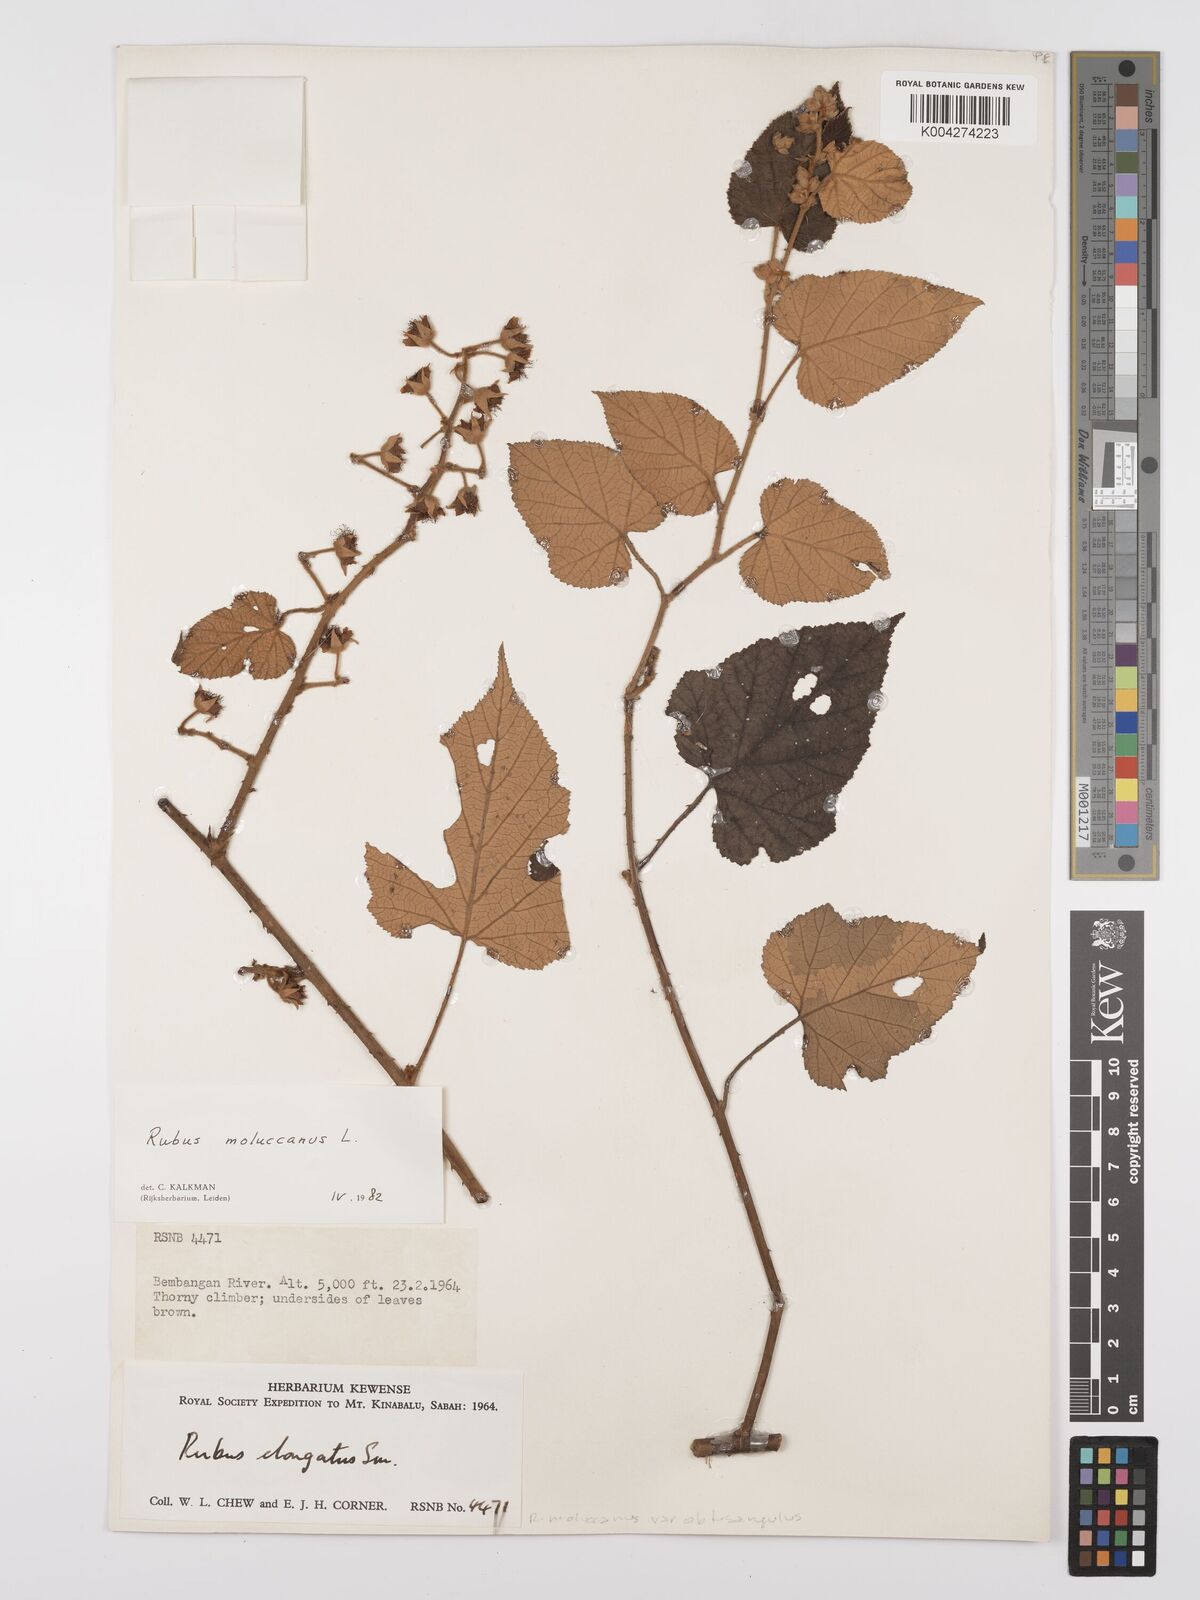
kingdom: Plantae
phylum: Tracheophyta
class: Magnoliopsida
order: Rosales
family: Rosaceae
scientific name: Rosaceae
